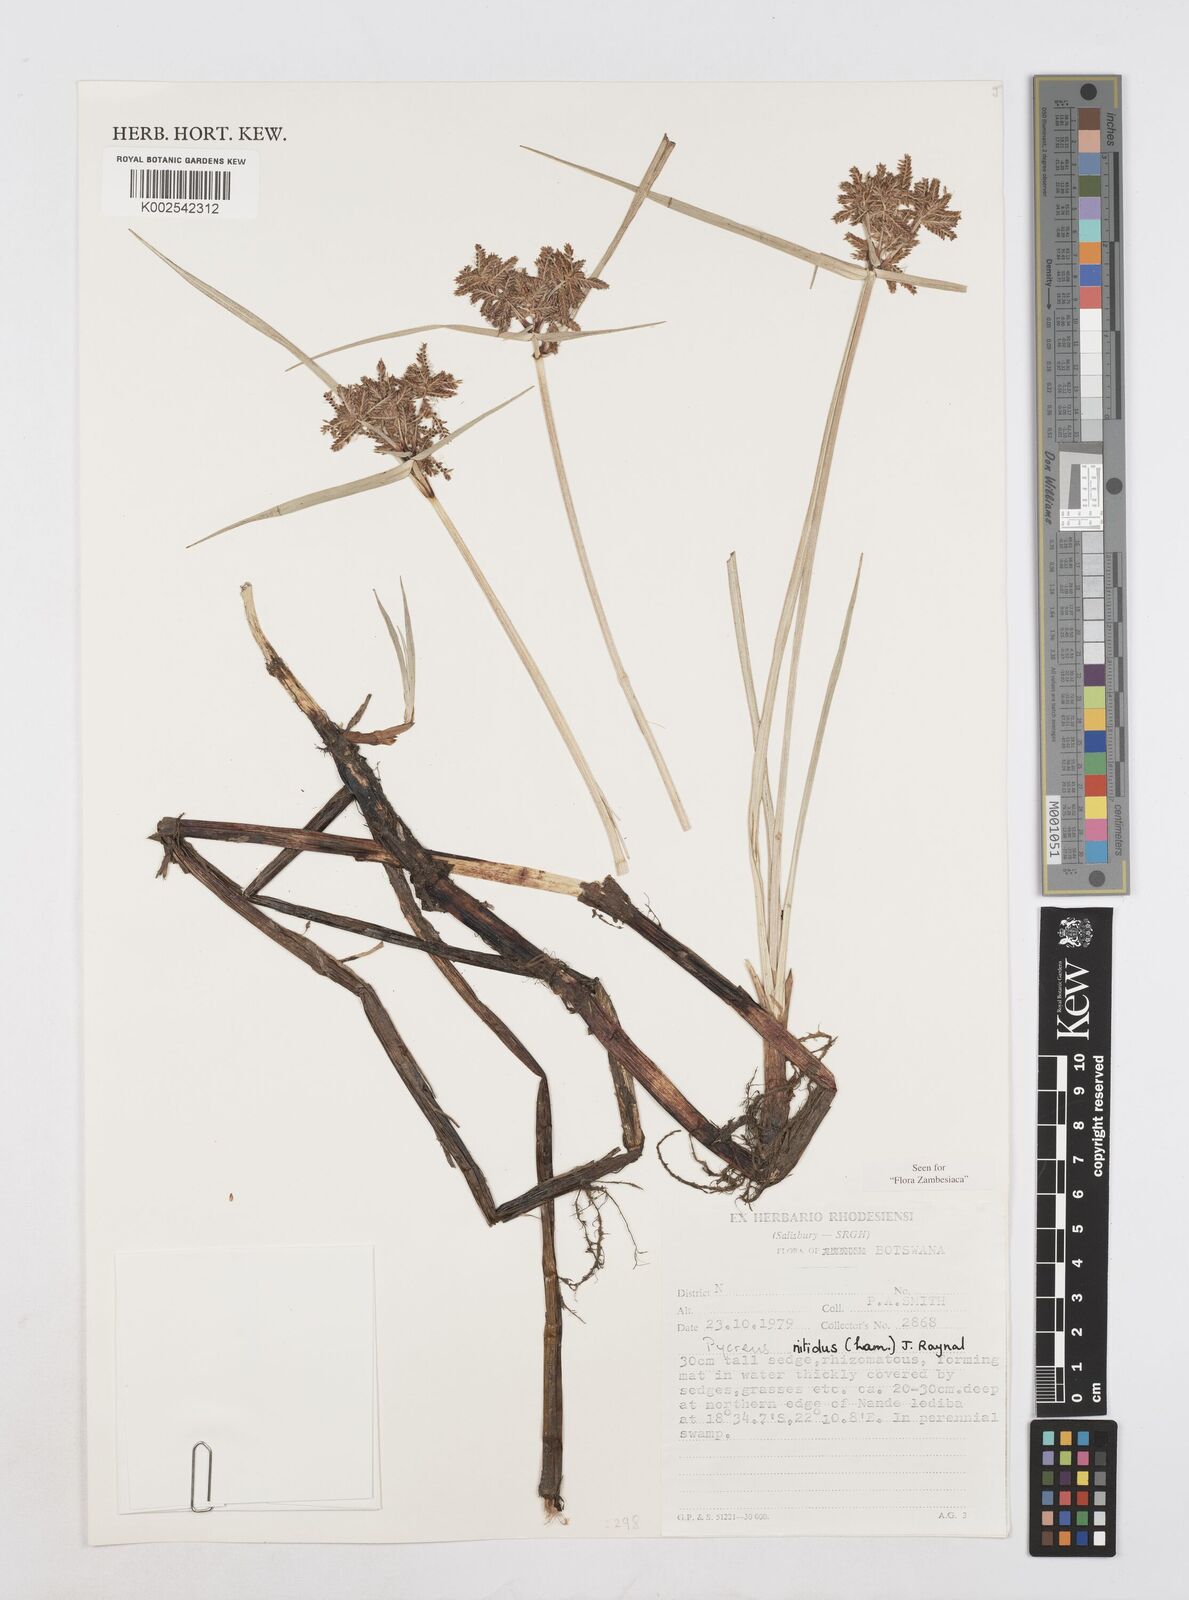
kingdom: Plantae
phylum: Tracheophyta
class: Liliopsida
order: Poales
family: Cyperaceae
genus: Cyperus
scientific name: Cyperus nitidus
